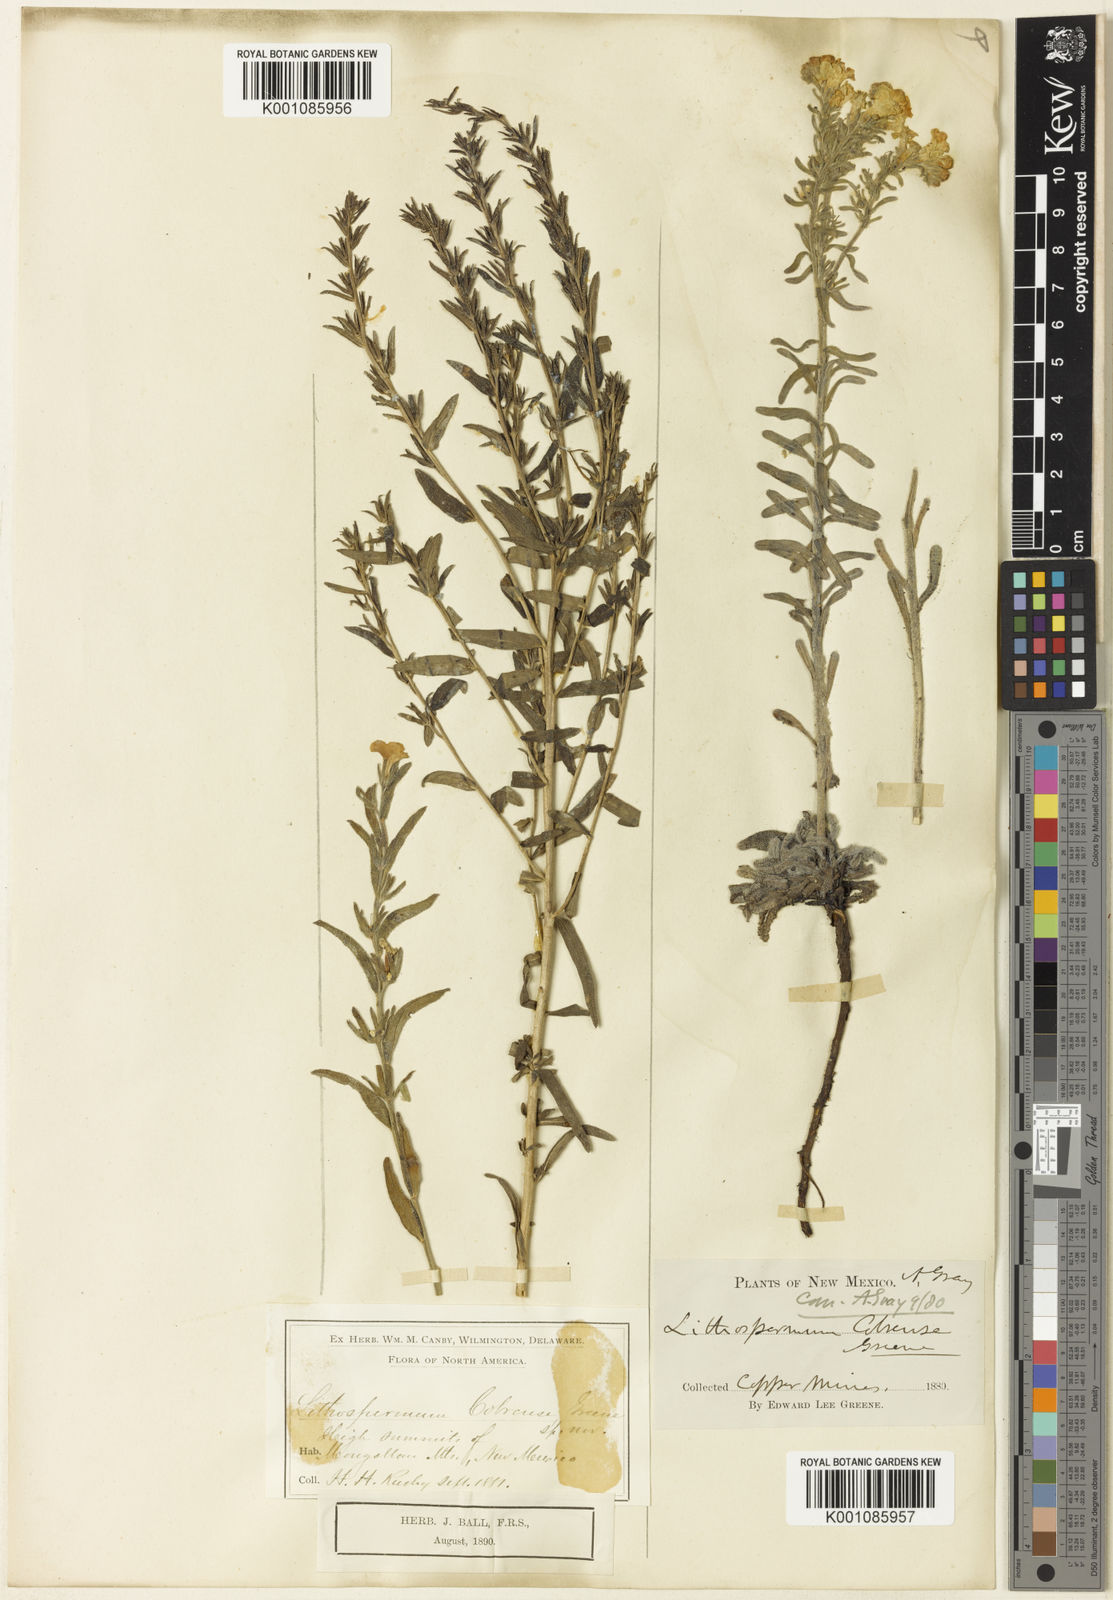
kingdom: Plantae
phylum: Tracheophyta
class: Magnoliopsida
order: Boraginales
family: Boraginaceae
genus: Lithospermum
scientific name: Lithospermum cobrense
